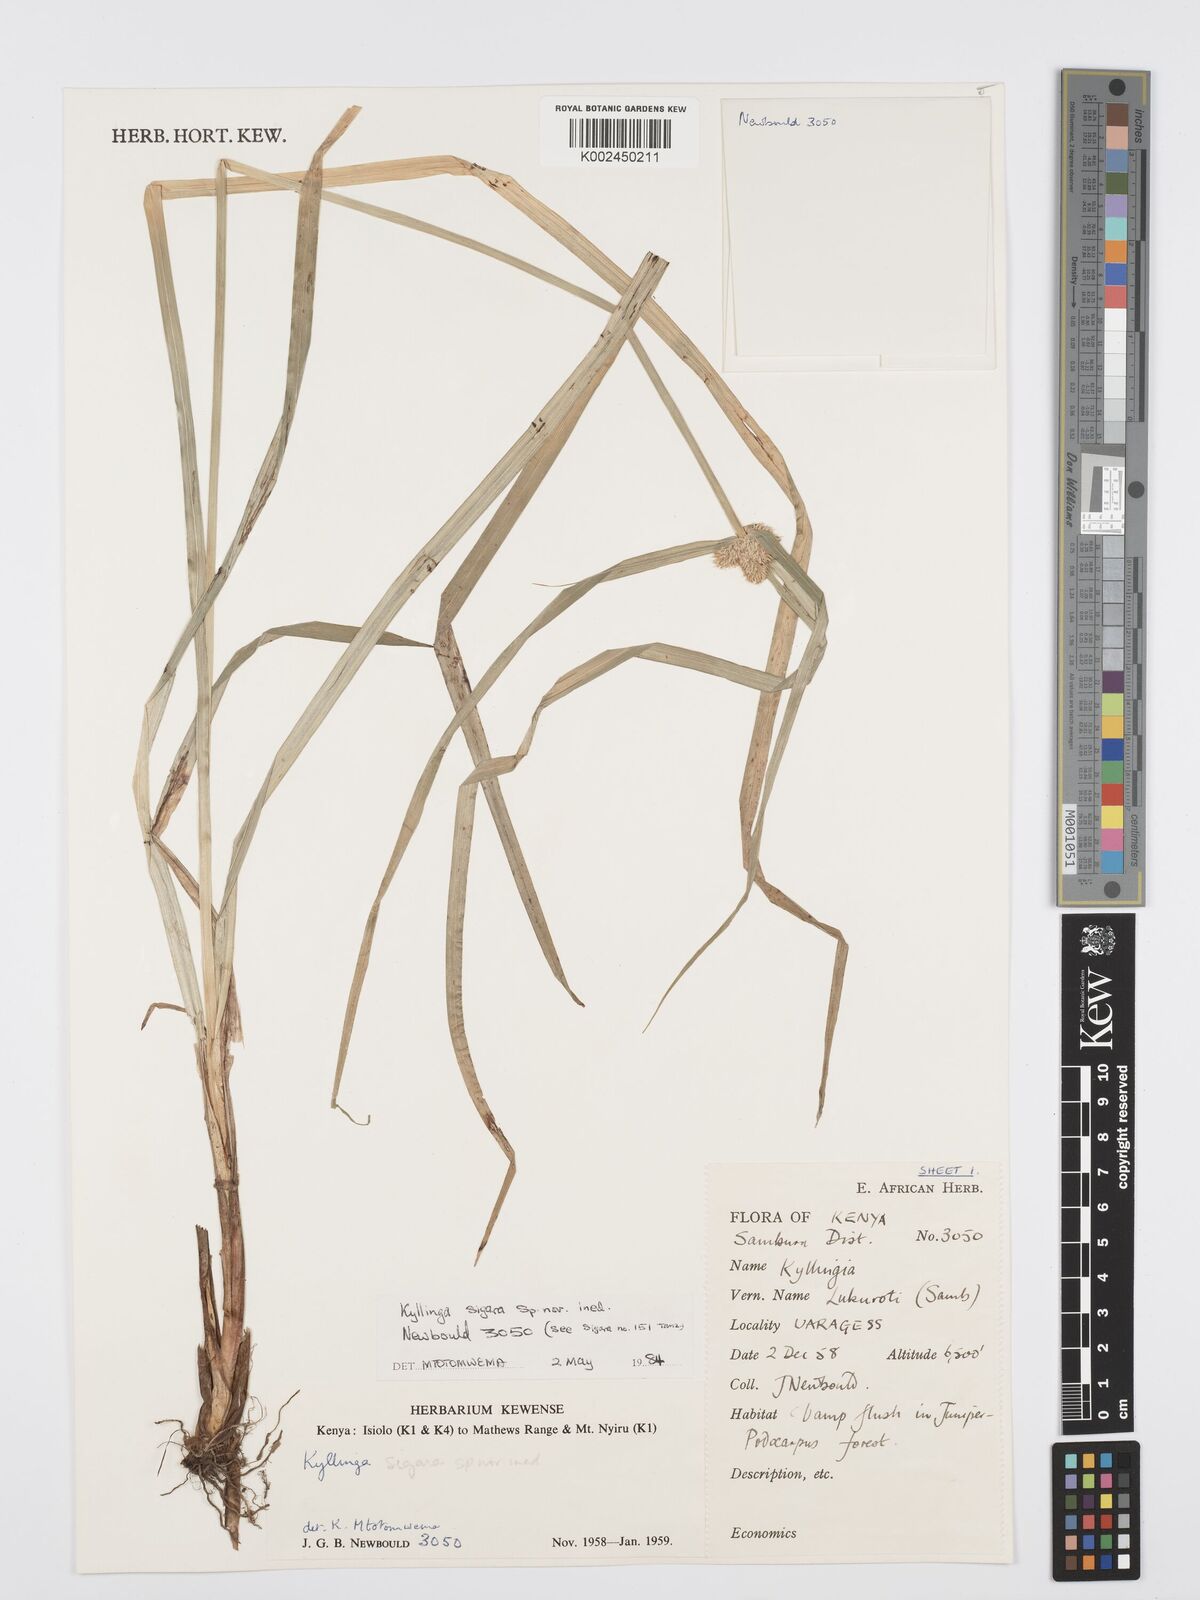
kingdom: Plantae
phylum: Tracheophyta
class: Liliopsida
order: Poales
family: Cyperaceae
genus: Cyperus
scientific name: Cyperus
